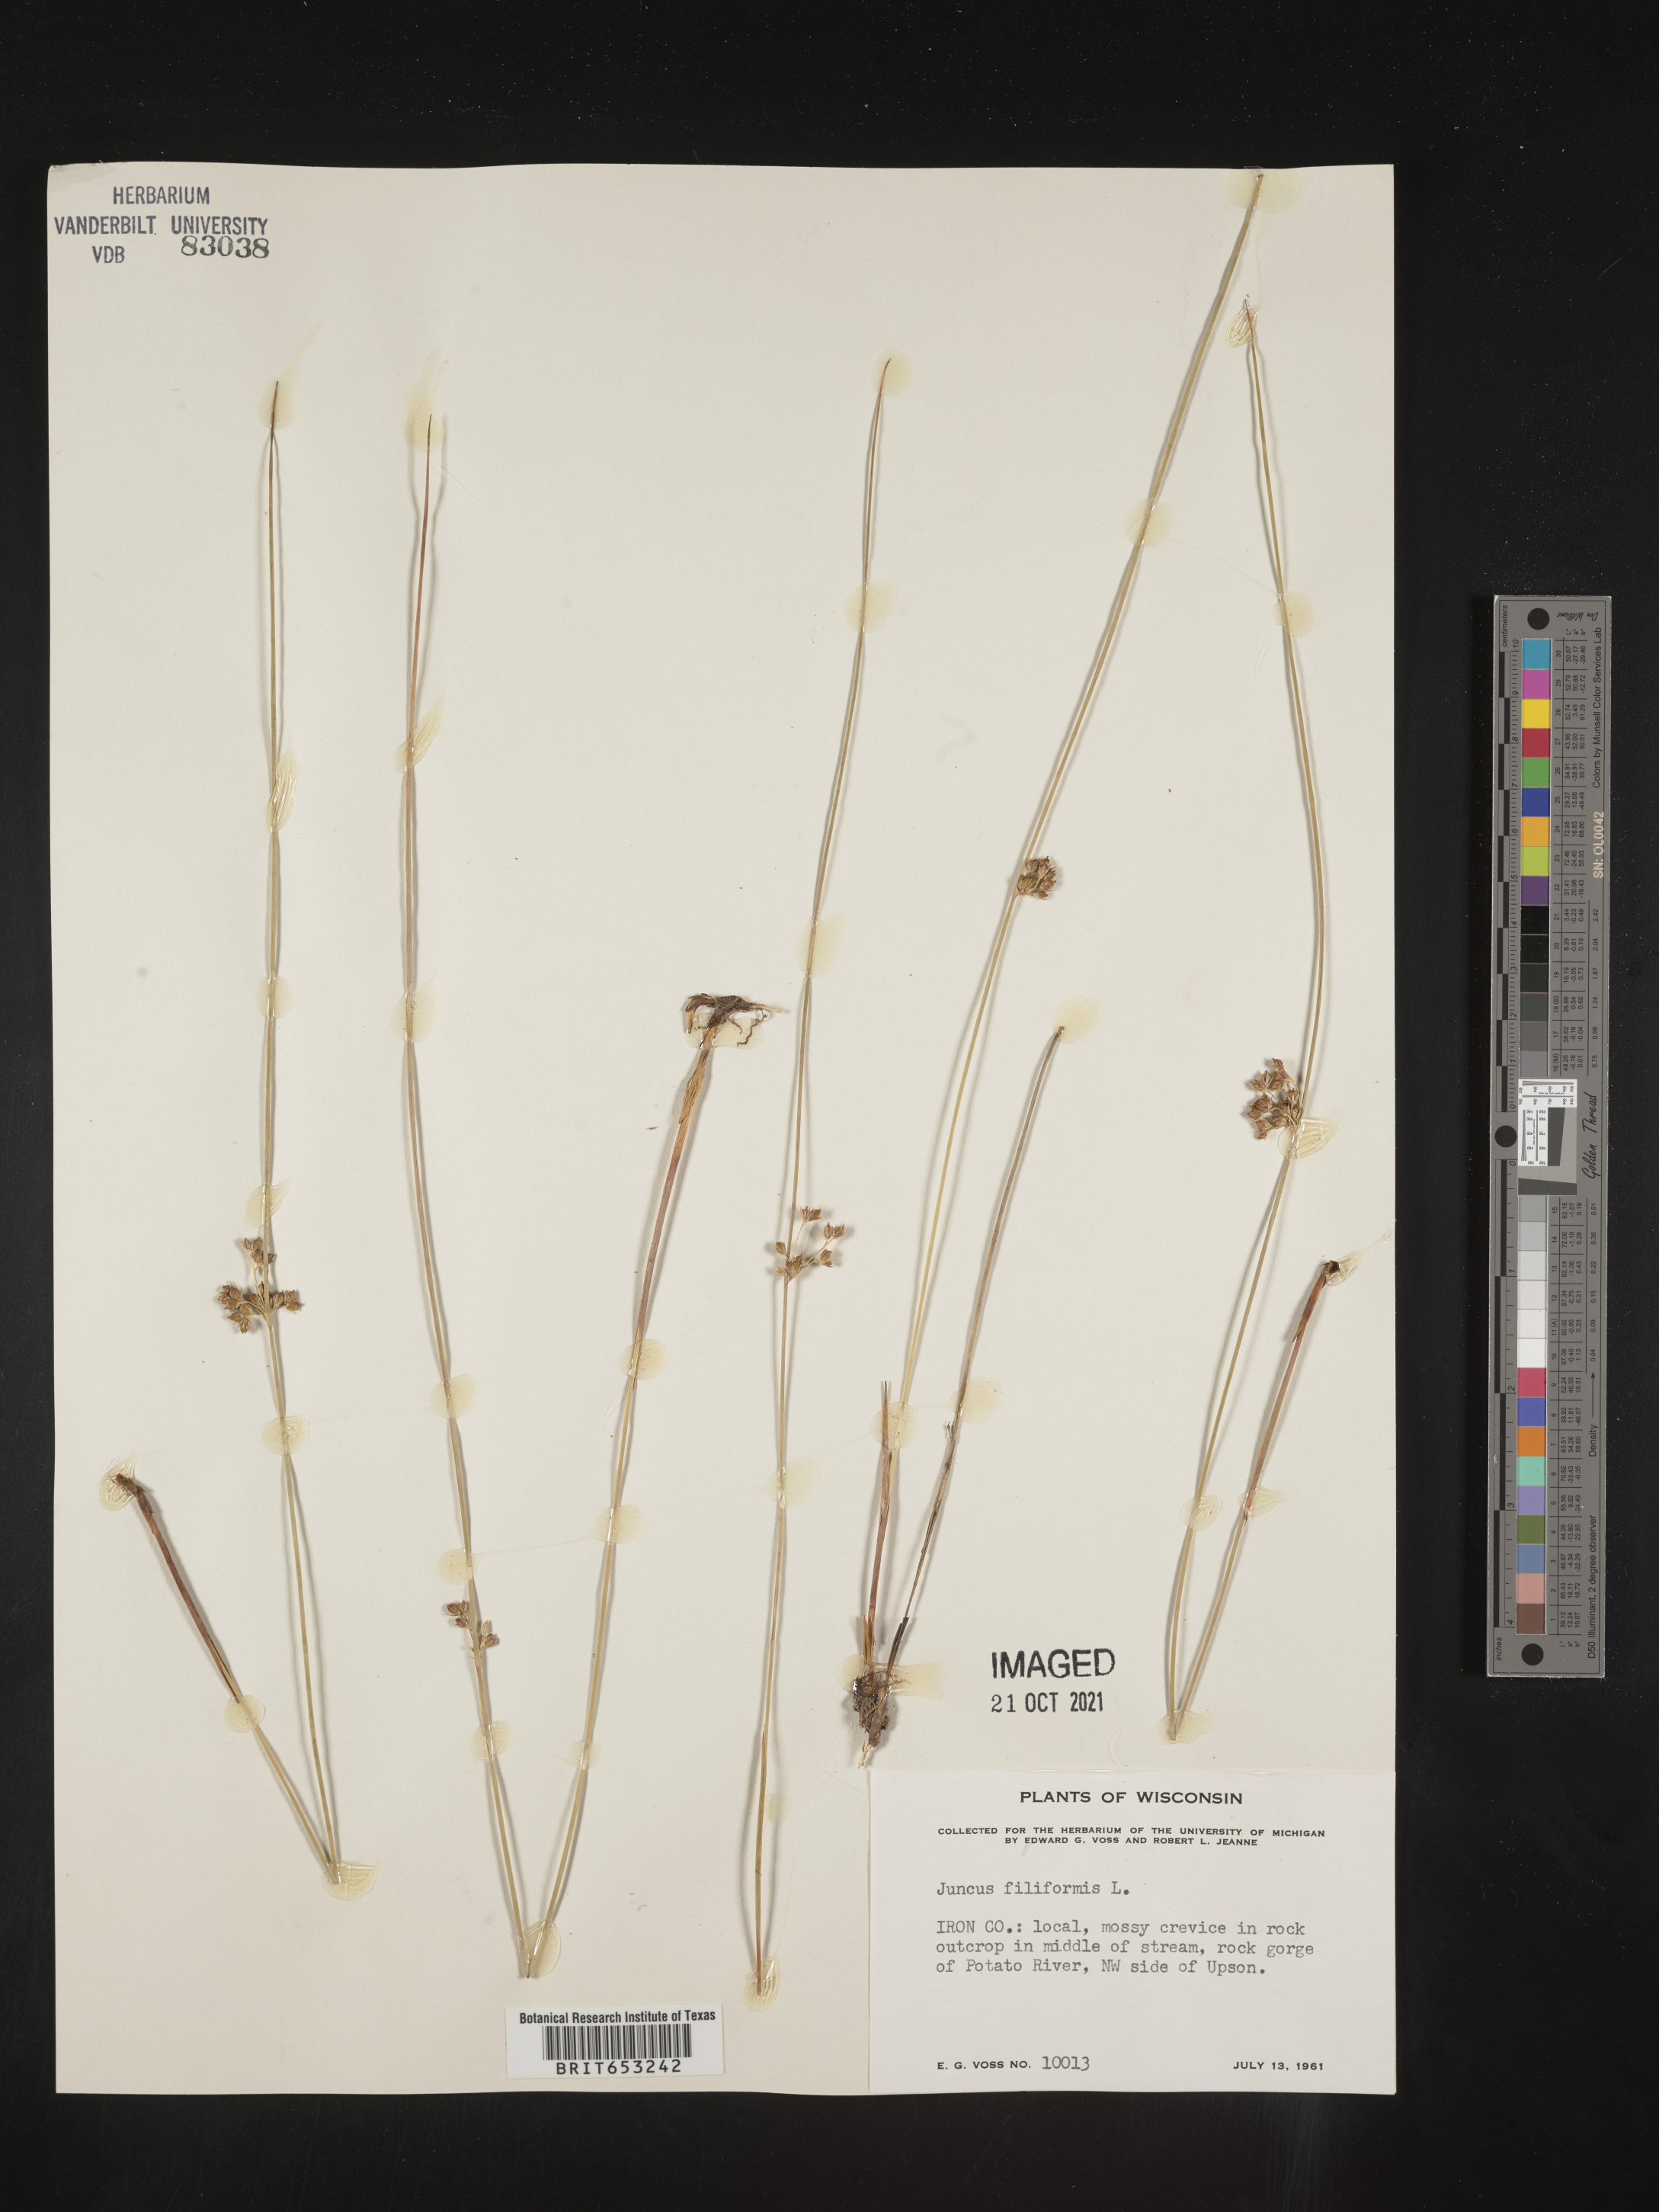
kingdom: Plantae
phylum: Tracheophyta
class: Liliopsida
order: Poales
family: Juncaceae
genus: Juncus
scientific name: Juncus filiformis
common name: Thread rush
